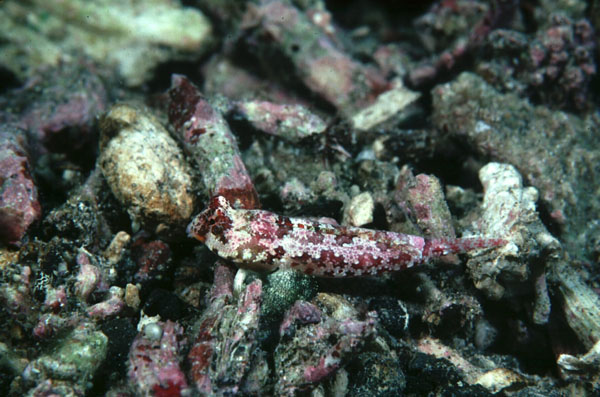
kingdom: Animalia
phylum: Chordata
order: Perciformes
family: Callionymidae
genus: Synchiropus
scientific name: Synchiropus morrisoni
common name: Morrison's dragonet
